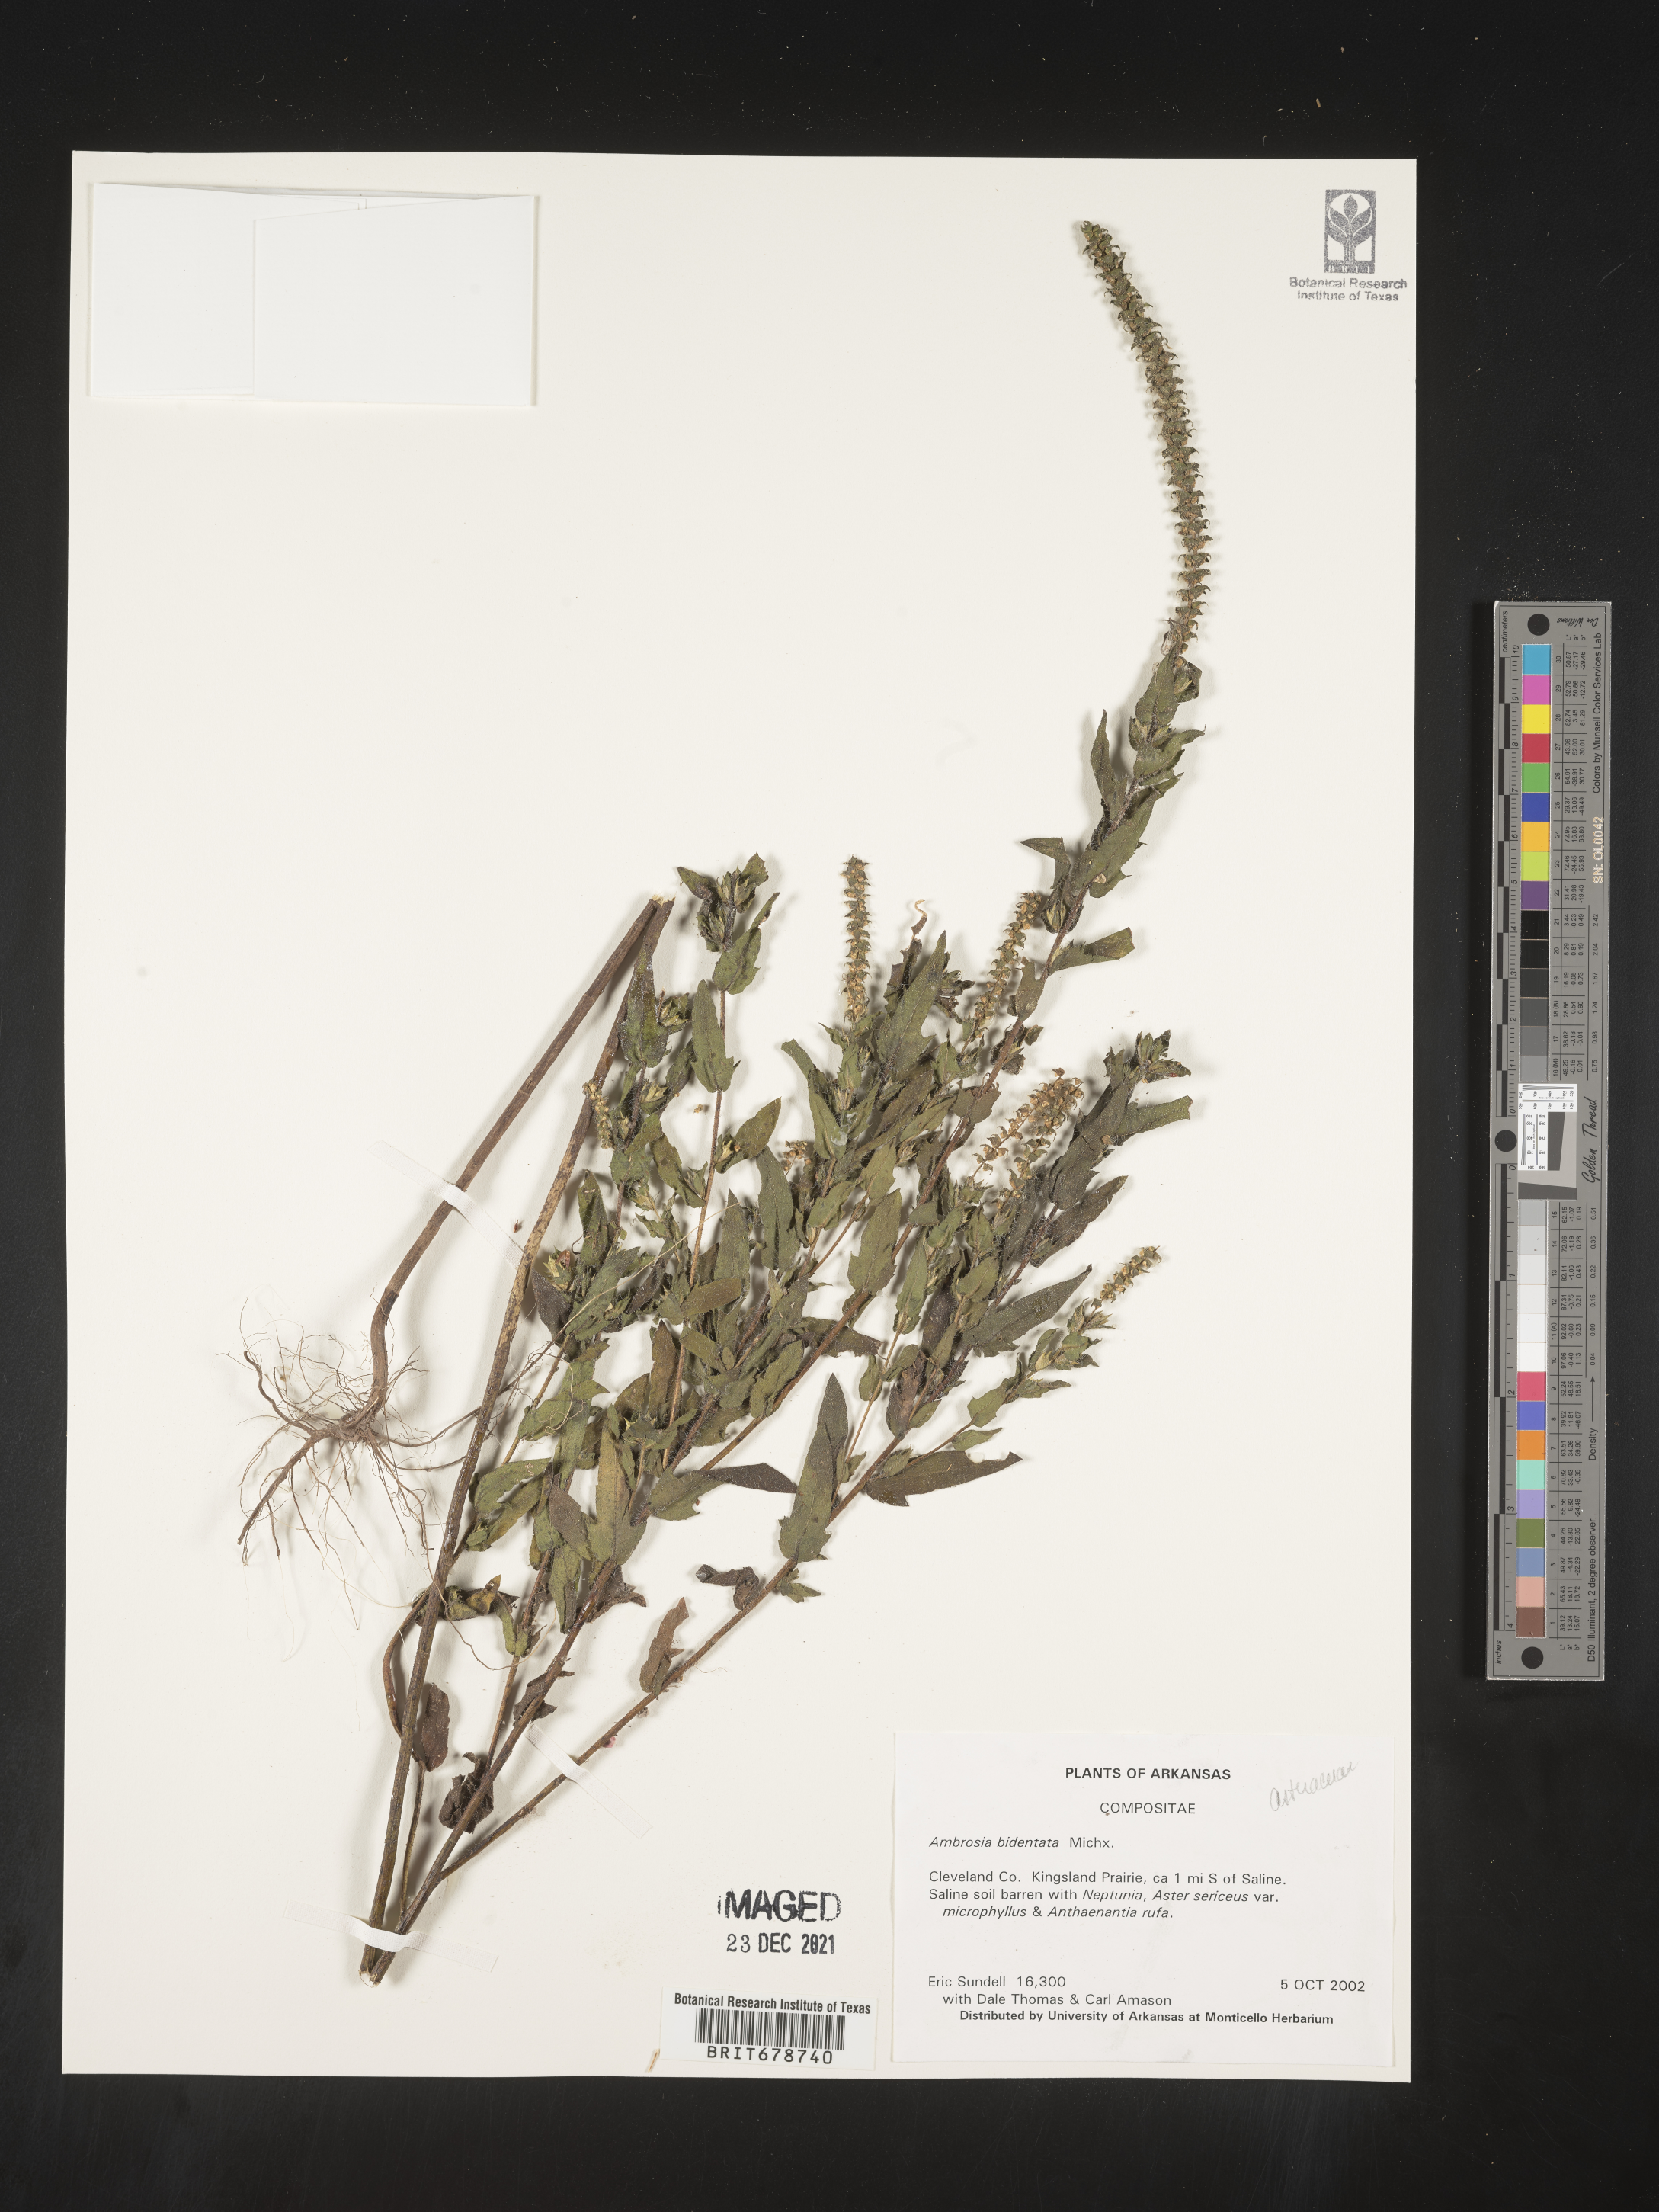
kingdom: Plantae
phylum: Tracheophyta
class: Magnoliopsida
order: Asterales
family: Asteraceae
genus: Ambrosia
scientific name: Ambrosia bidentata
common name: Southern ragweed
